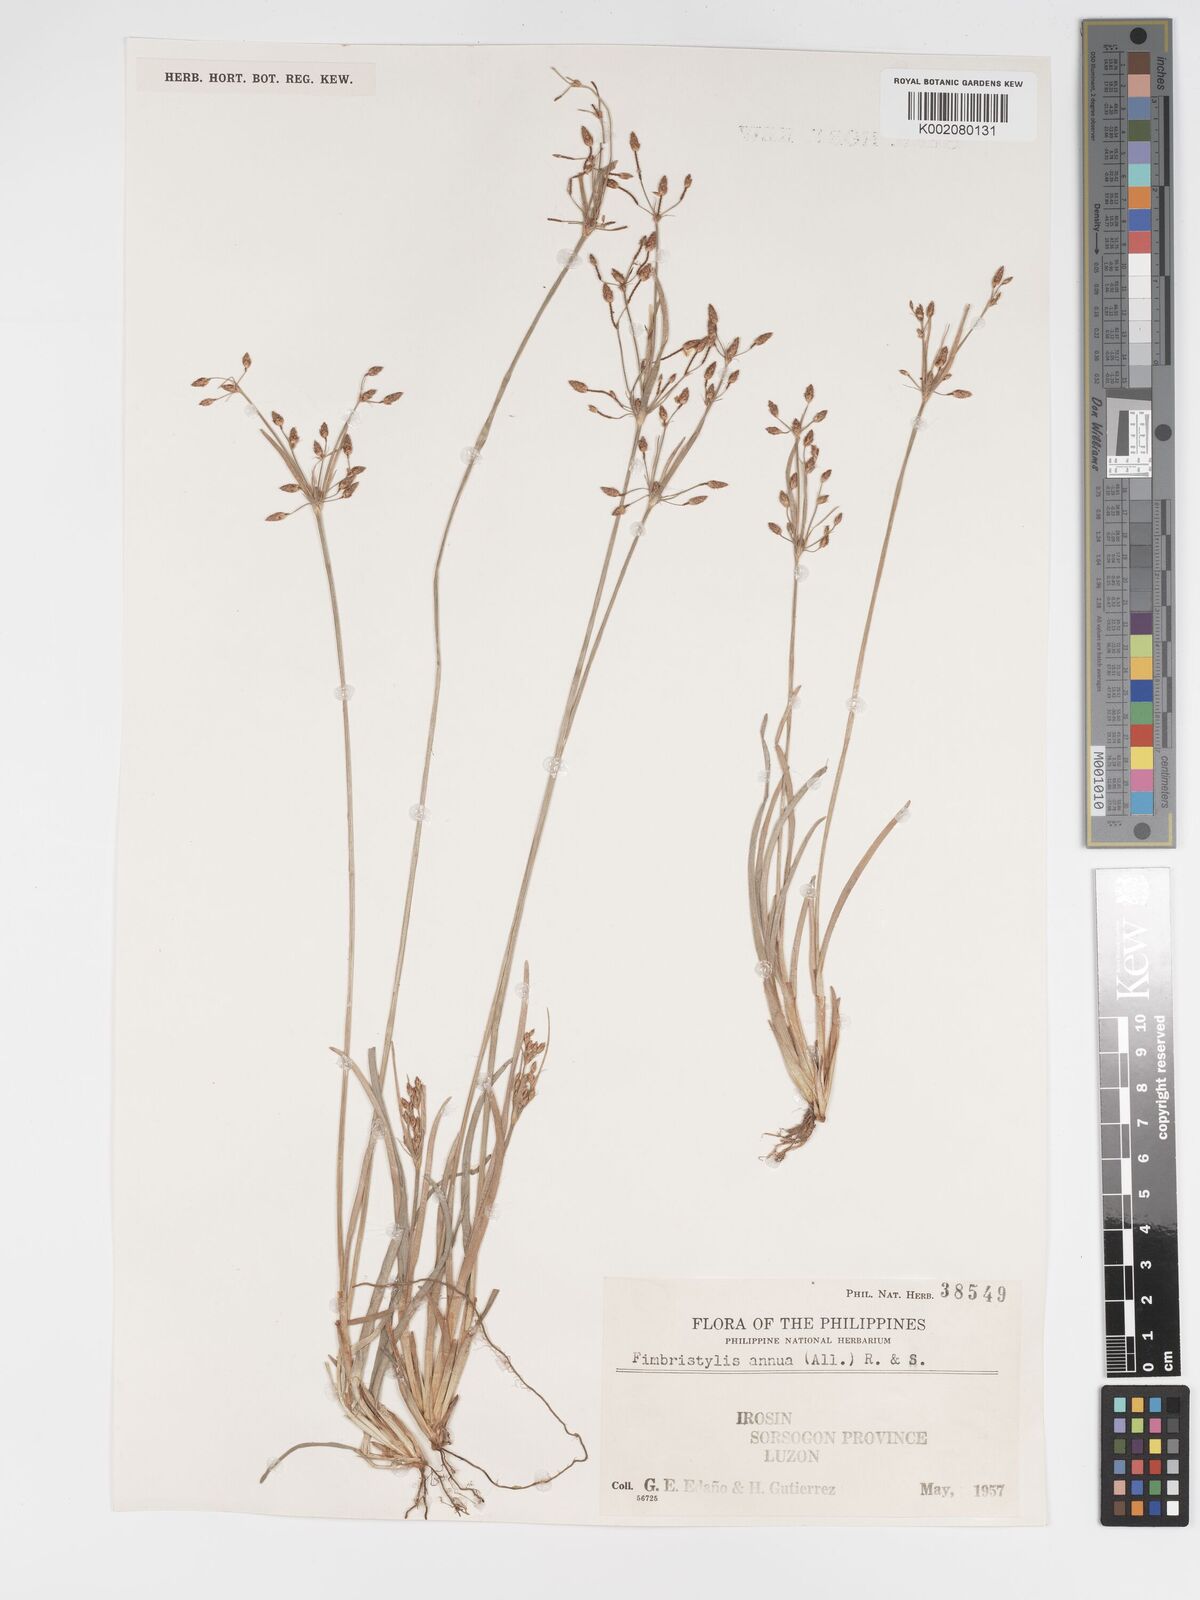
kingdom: Plantae
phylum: Tracheophyta
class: Liliopsida
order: Poales
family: Cyperaceae
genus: Fimbristylis
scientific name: Fimbristylis dichotoma
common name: Forked fimbry
